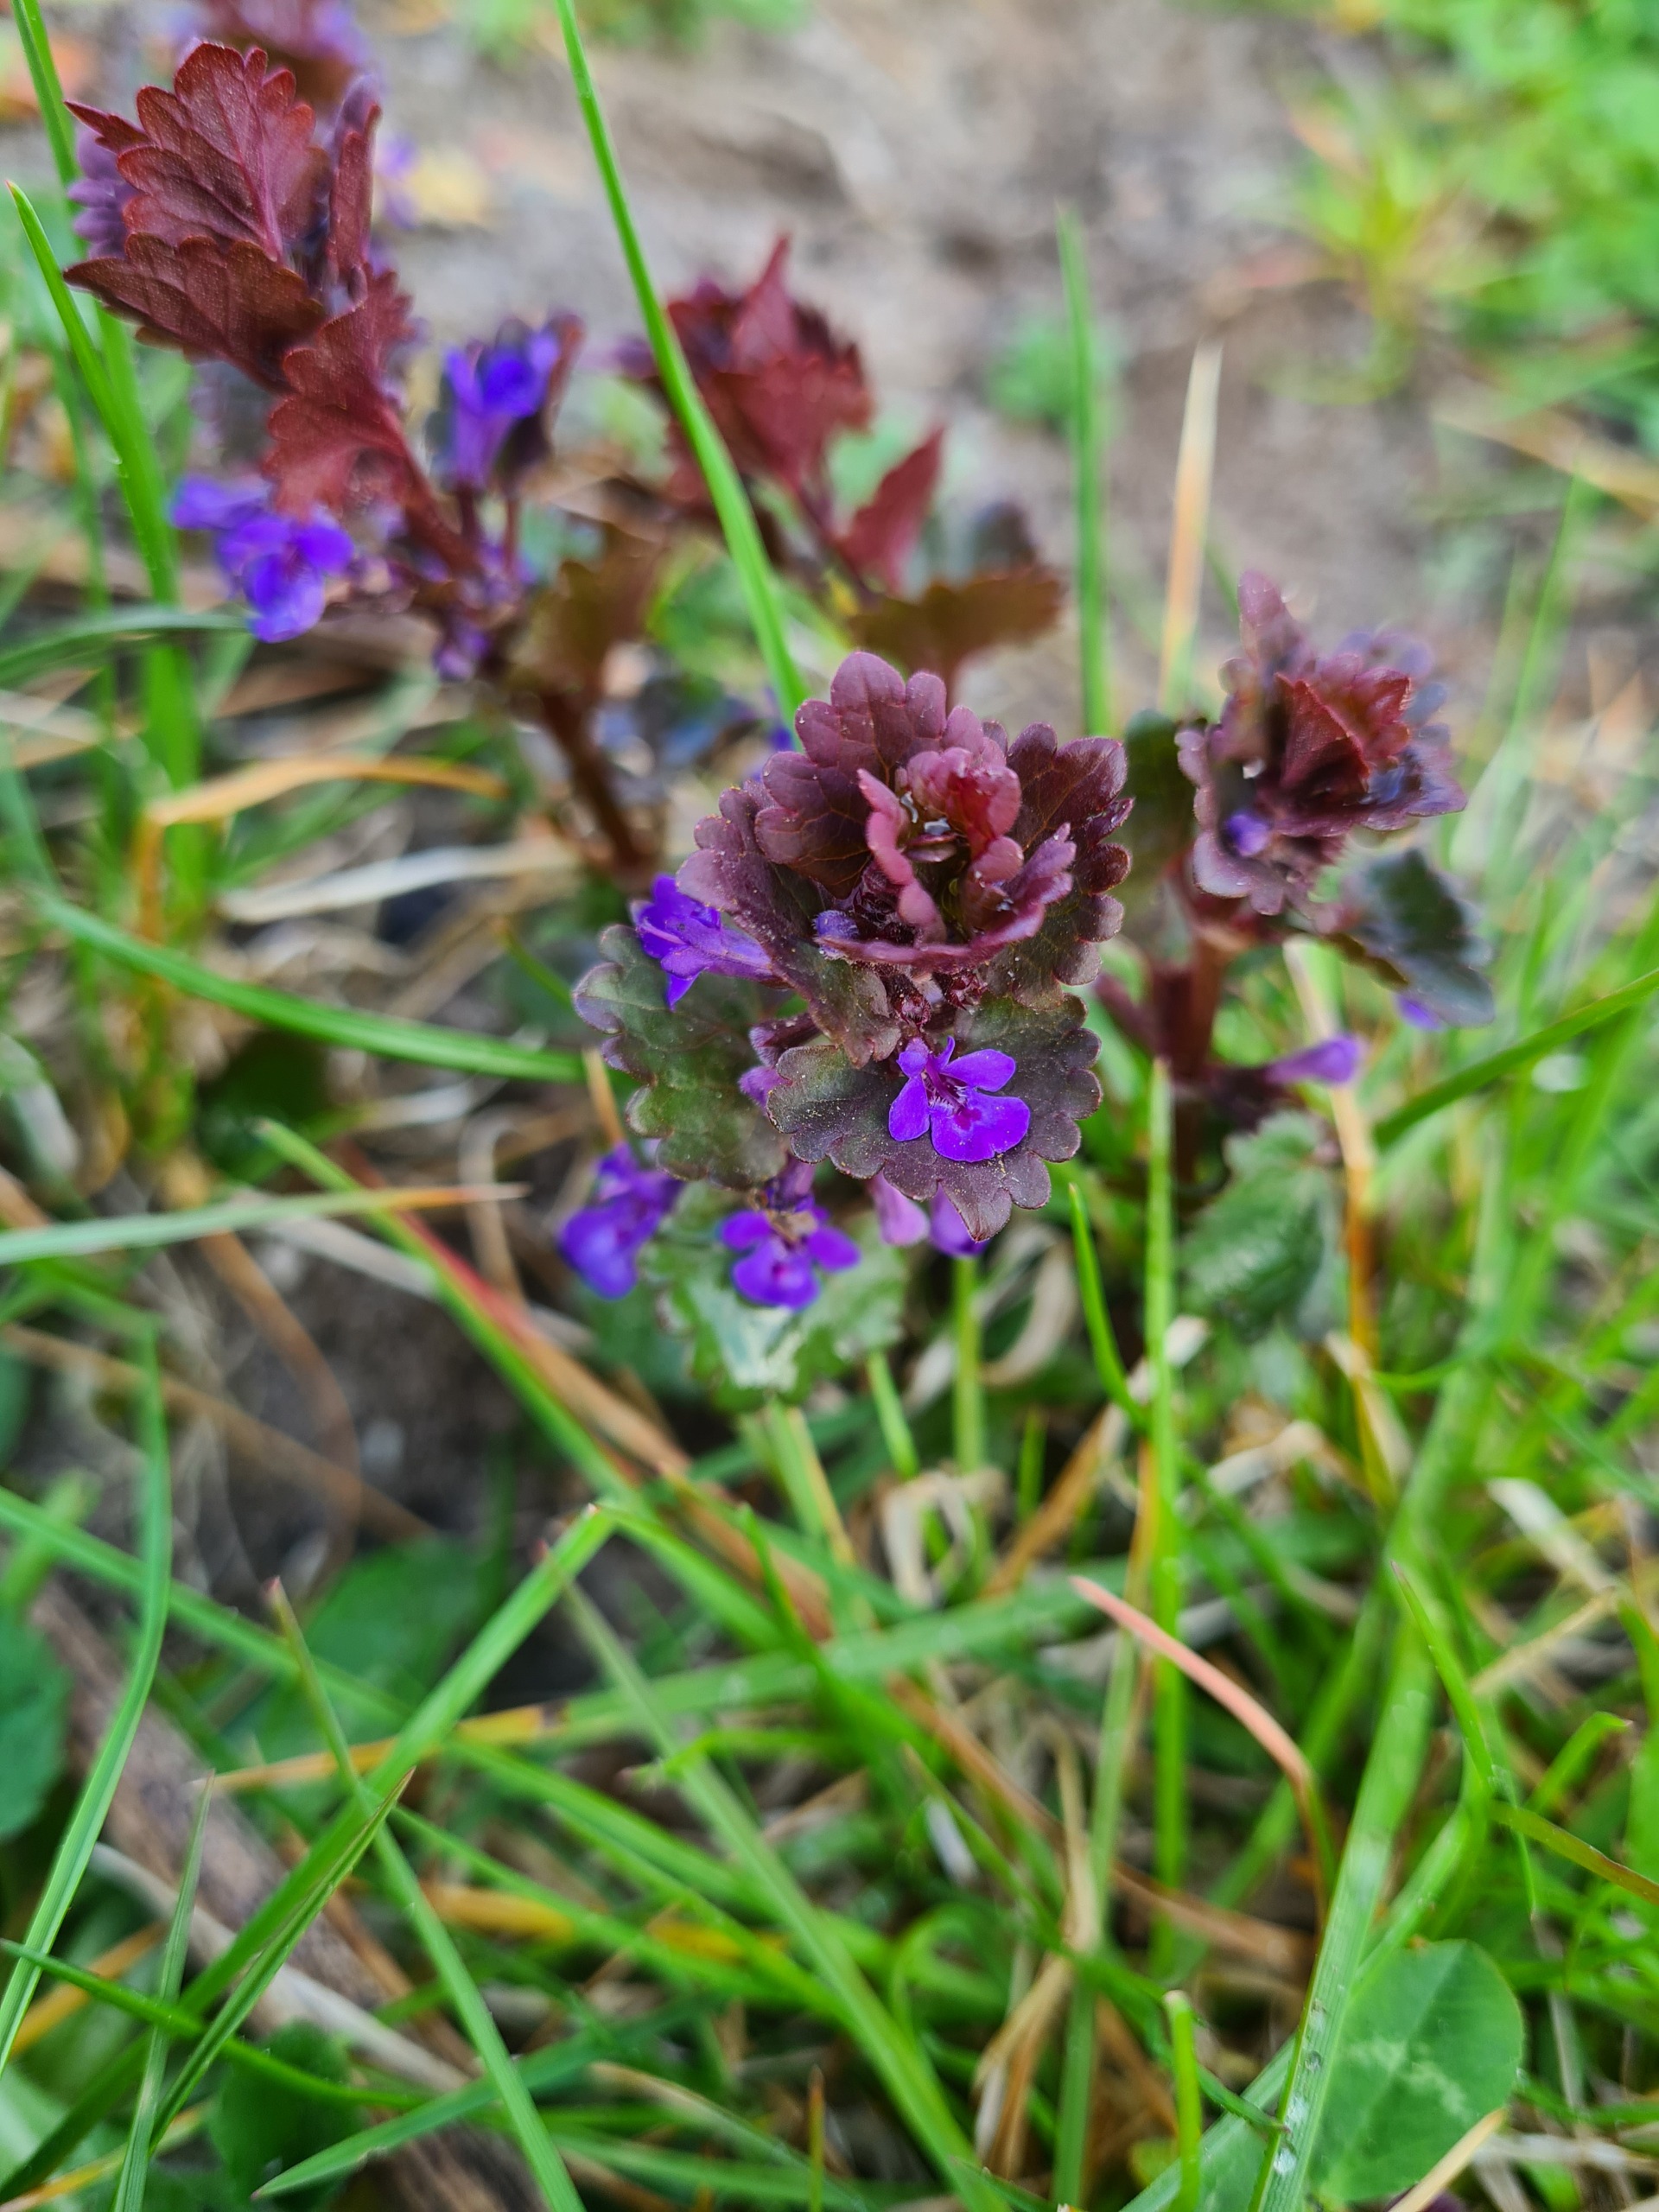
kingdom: Plantae
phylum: Tracheophyta
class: Magnoliopsida
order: Lamiales
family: Lamiaceae
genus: Glechoma
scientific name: Glechoma hederacea
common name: Korsknap
